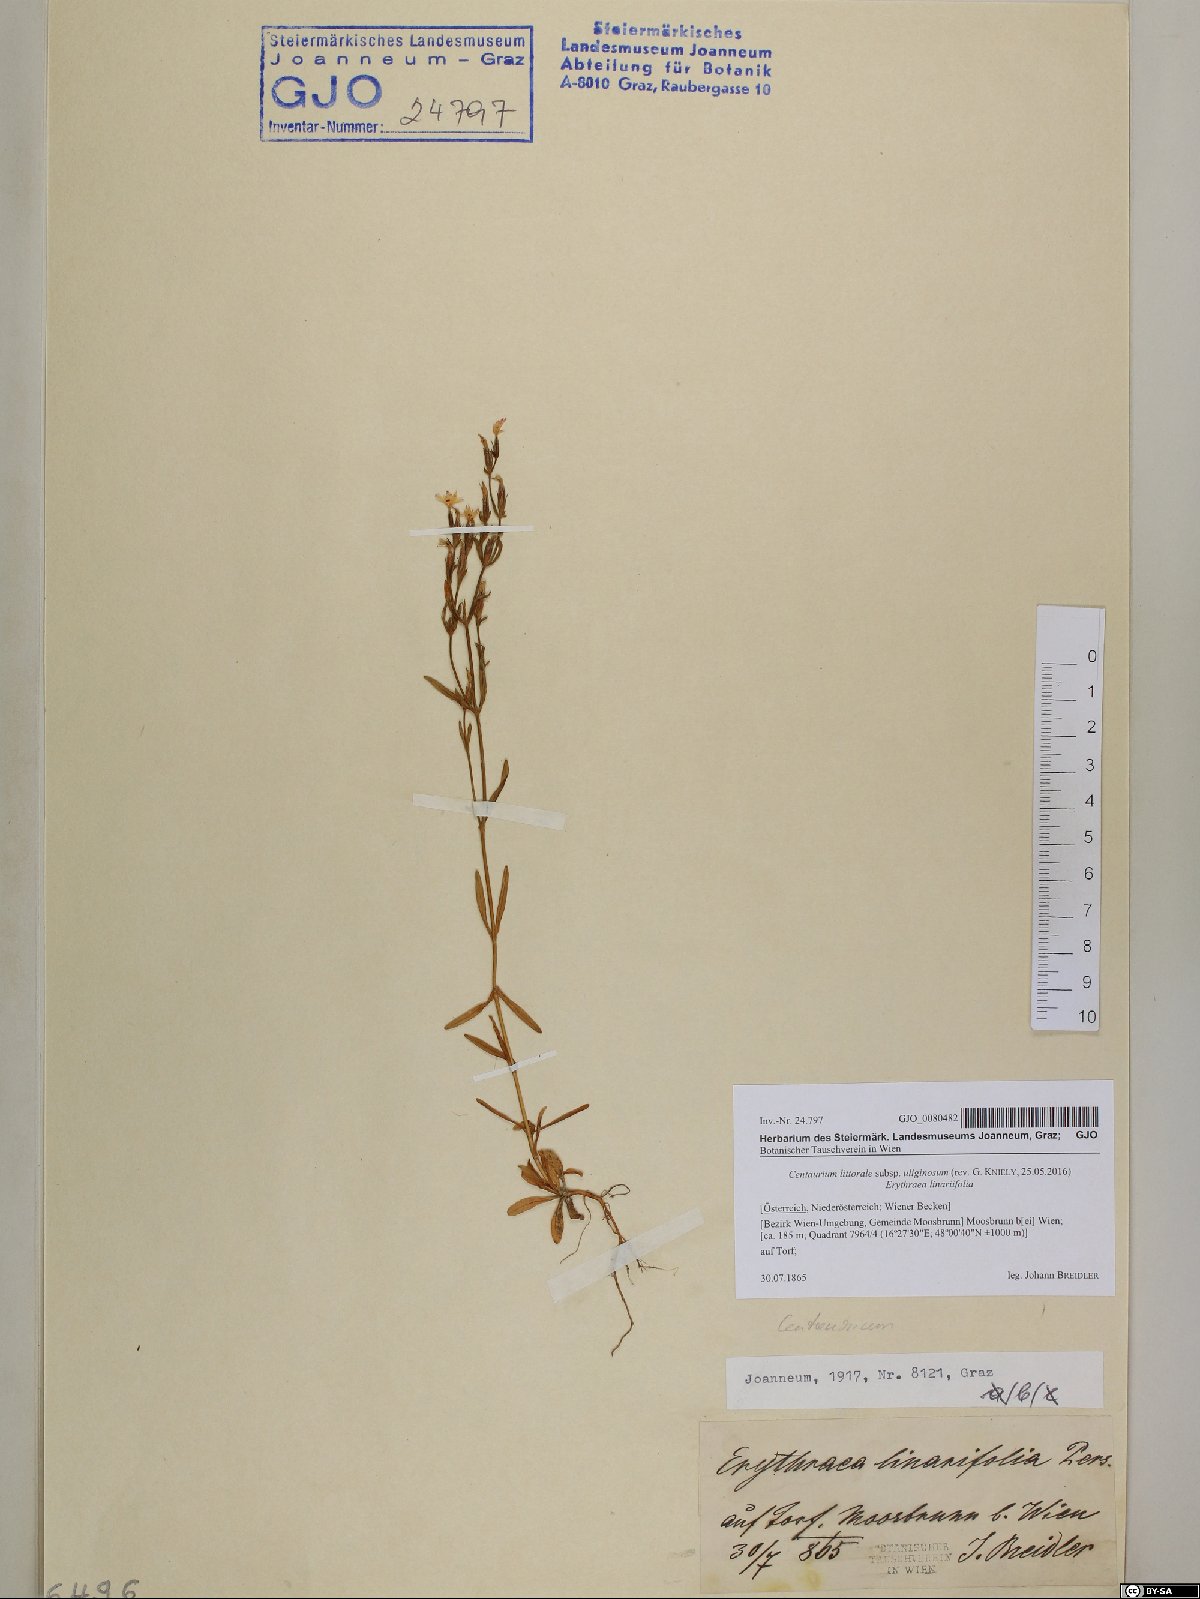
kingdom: Plantae
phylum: Tracheophyta
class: Magnoliopsida
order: Gentianales
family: Gentianaceae
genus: Centaurium
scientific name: Centaurium littorale
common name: Seaside centaury
